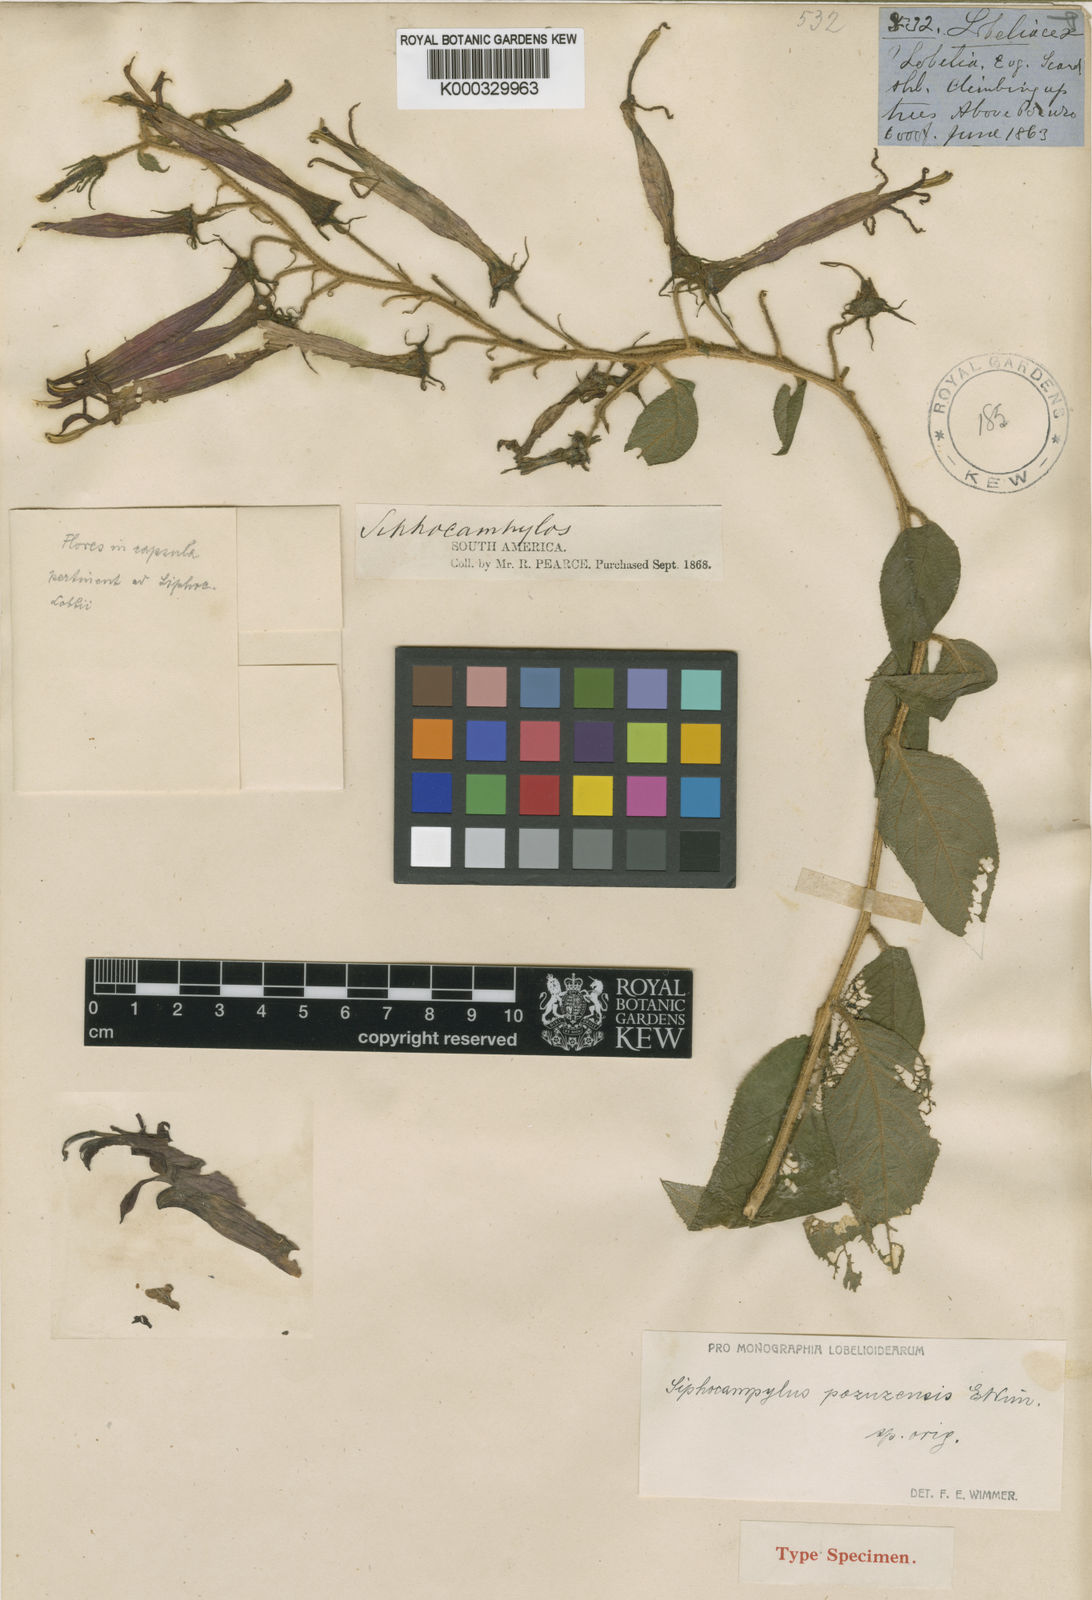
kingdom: Plantae
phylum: Tracheophyta
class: Magnoliopsida
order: Asterales
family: Campanulaceae
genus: Siphocampylus
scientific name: Siphocampylus pozuzensis
